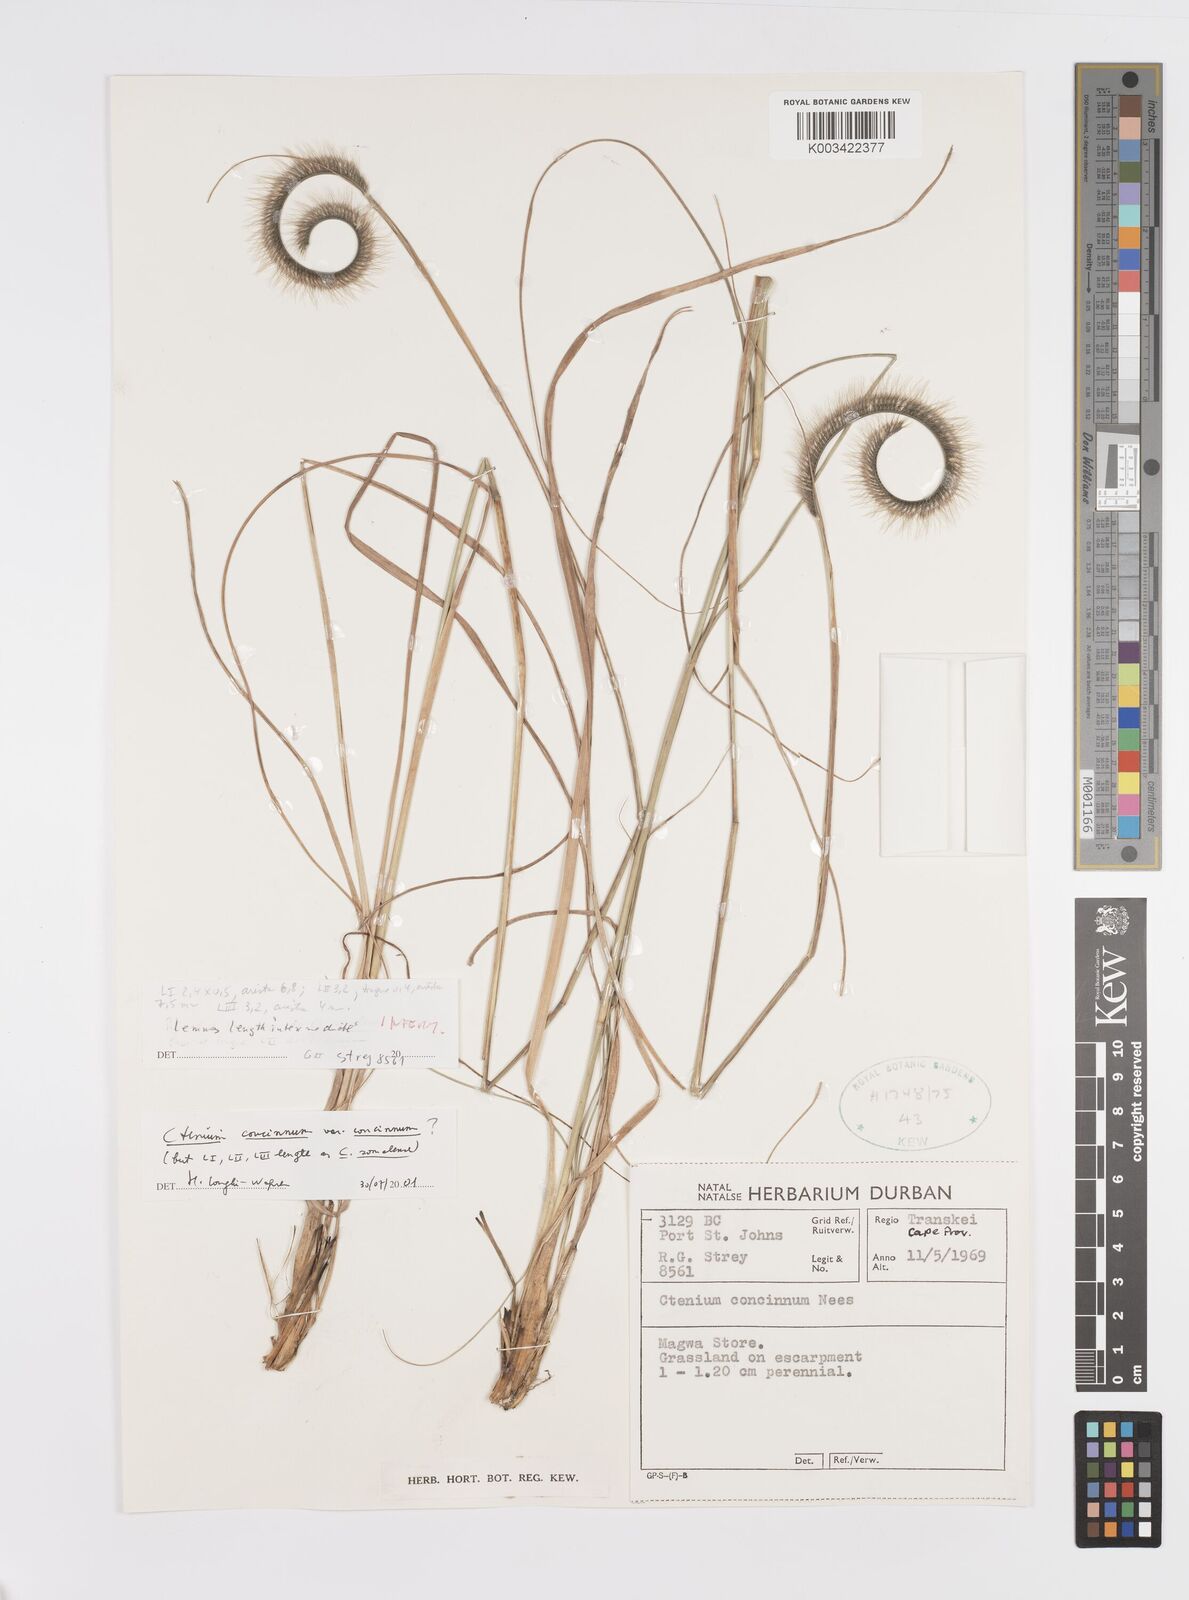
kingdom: Plantae
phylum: Tracheophyta
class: Liliopsida
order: Poales
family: Poaceae
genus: Ctenium
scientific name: Ctenium concinnum
